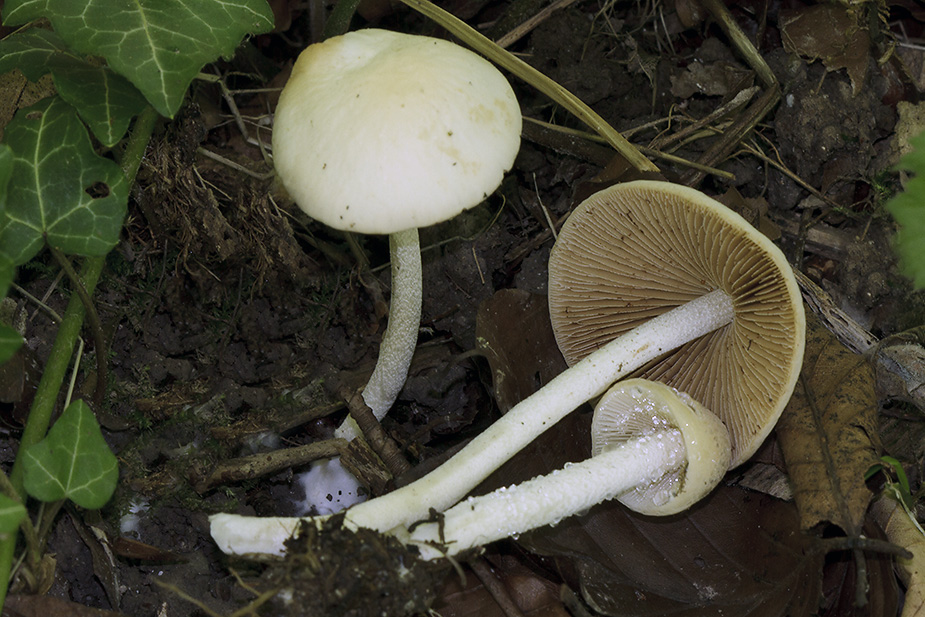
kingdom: Fungi
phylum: Basidiomycota
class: Agaricomycetes
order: Agaricales
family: Bolbitiaceae
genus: Conocybe
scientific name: Conocybe striipes
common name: knippe-dansehat
